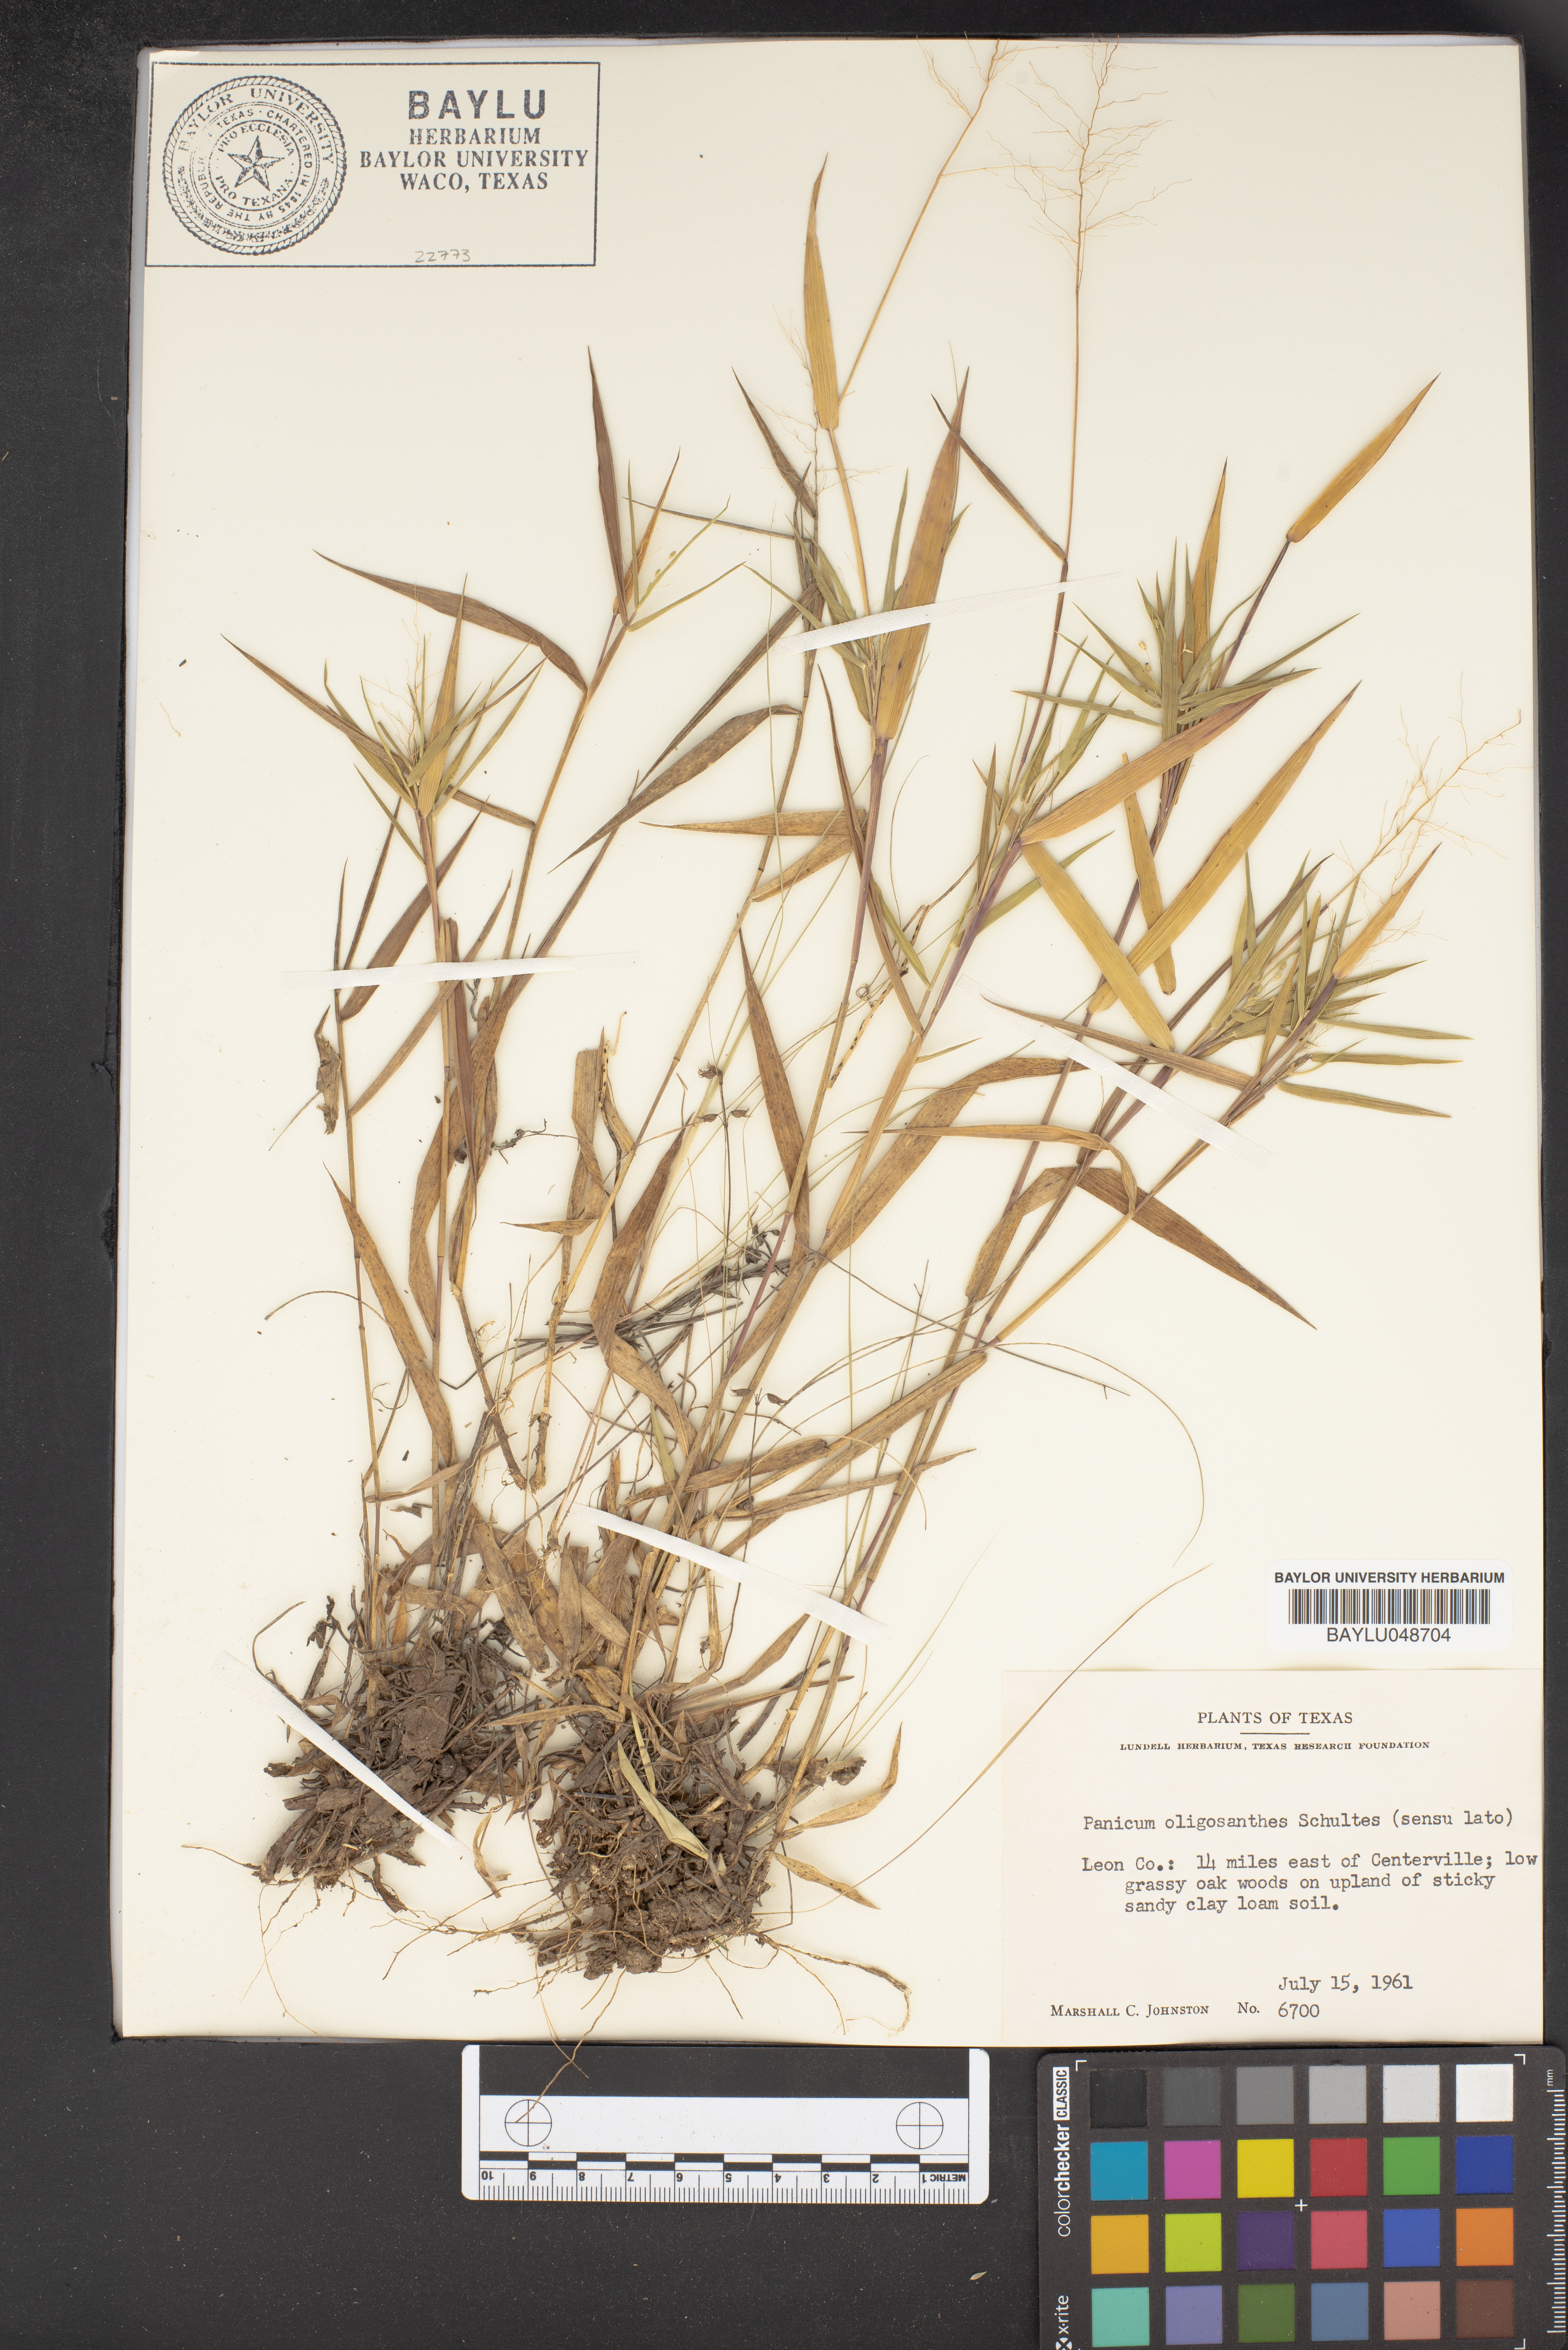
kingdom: Plantae
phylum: Tracheophyta
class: Liliopsida
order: Poales
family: Poaceae
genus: Dichanthelium
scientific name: Dichanthelium oligosanthes
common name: Few-anther obscuregrass
